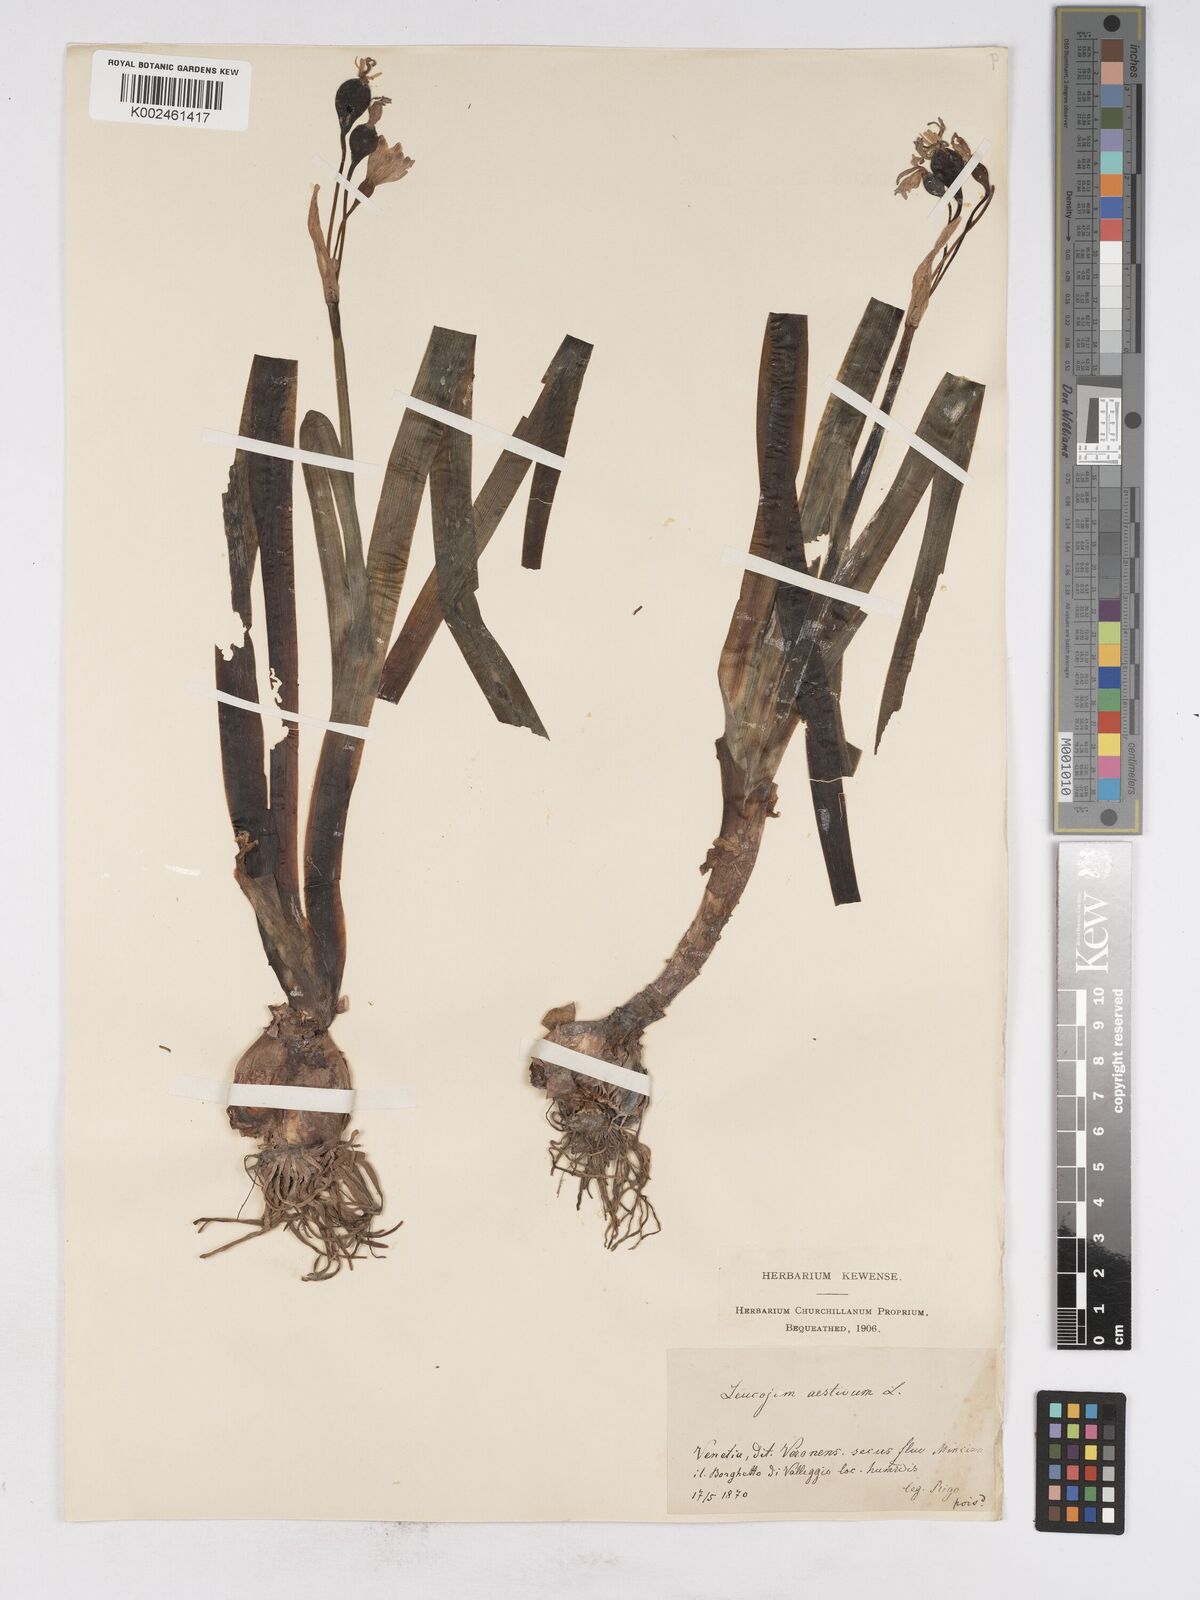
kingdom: Plantae
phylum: Tracheophyta
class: Liliopsida
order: Asparagales
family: Amaryllidaceae
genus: Leucojum
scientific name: Leucojum aestivum
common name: Summer snowflake
